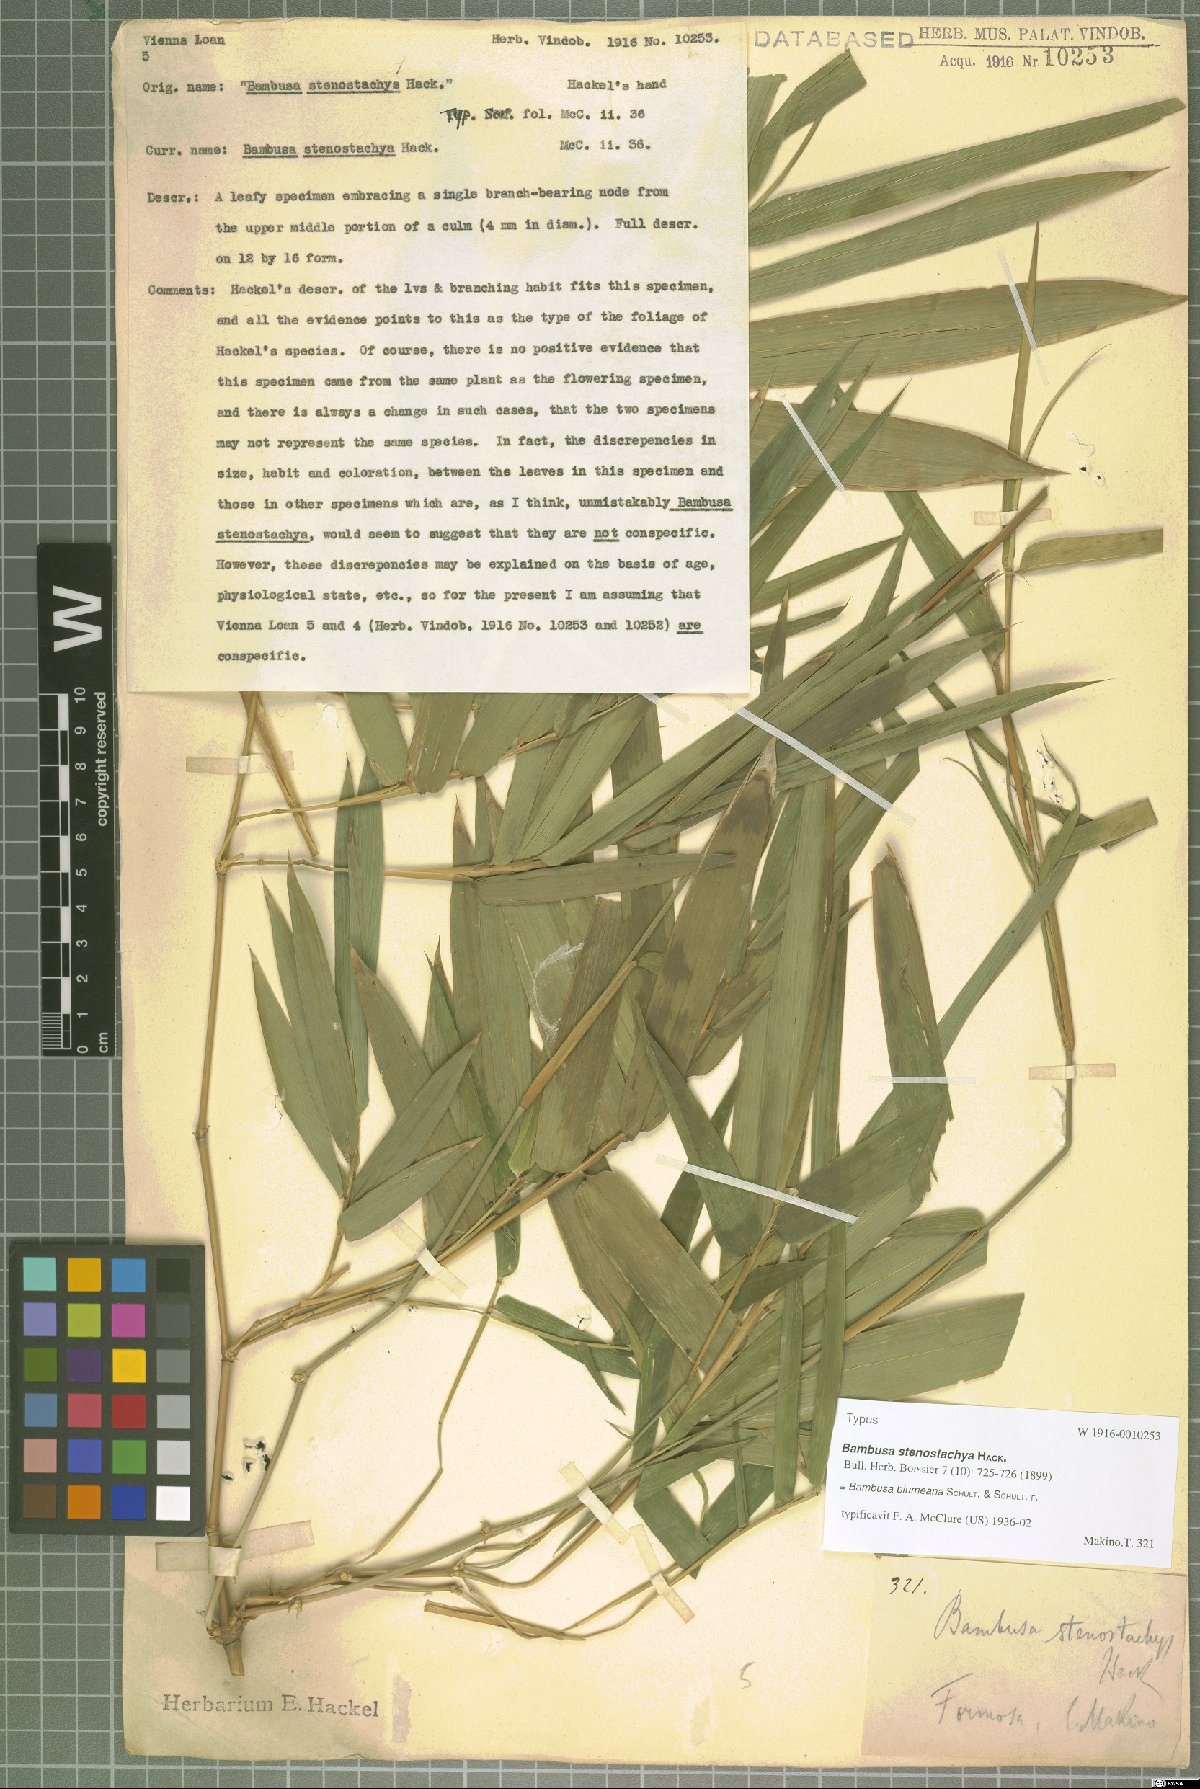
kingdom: Plantae
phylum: Tracheophyta
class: Liliopsida
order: Poales
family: Poaceae
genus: Bambusa
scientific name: Bambusa spinosa
